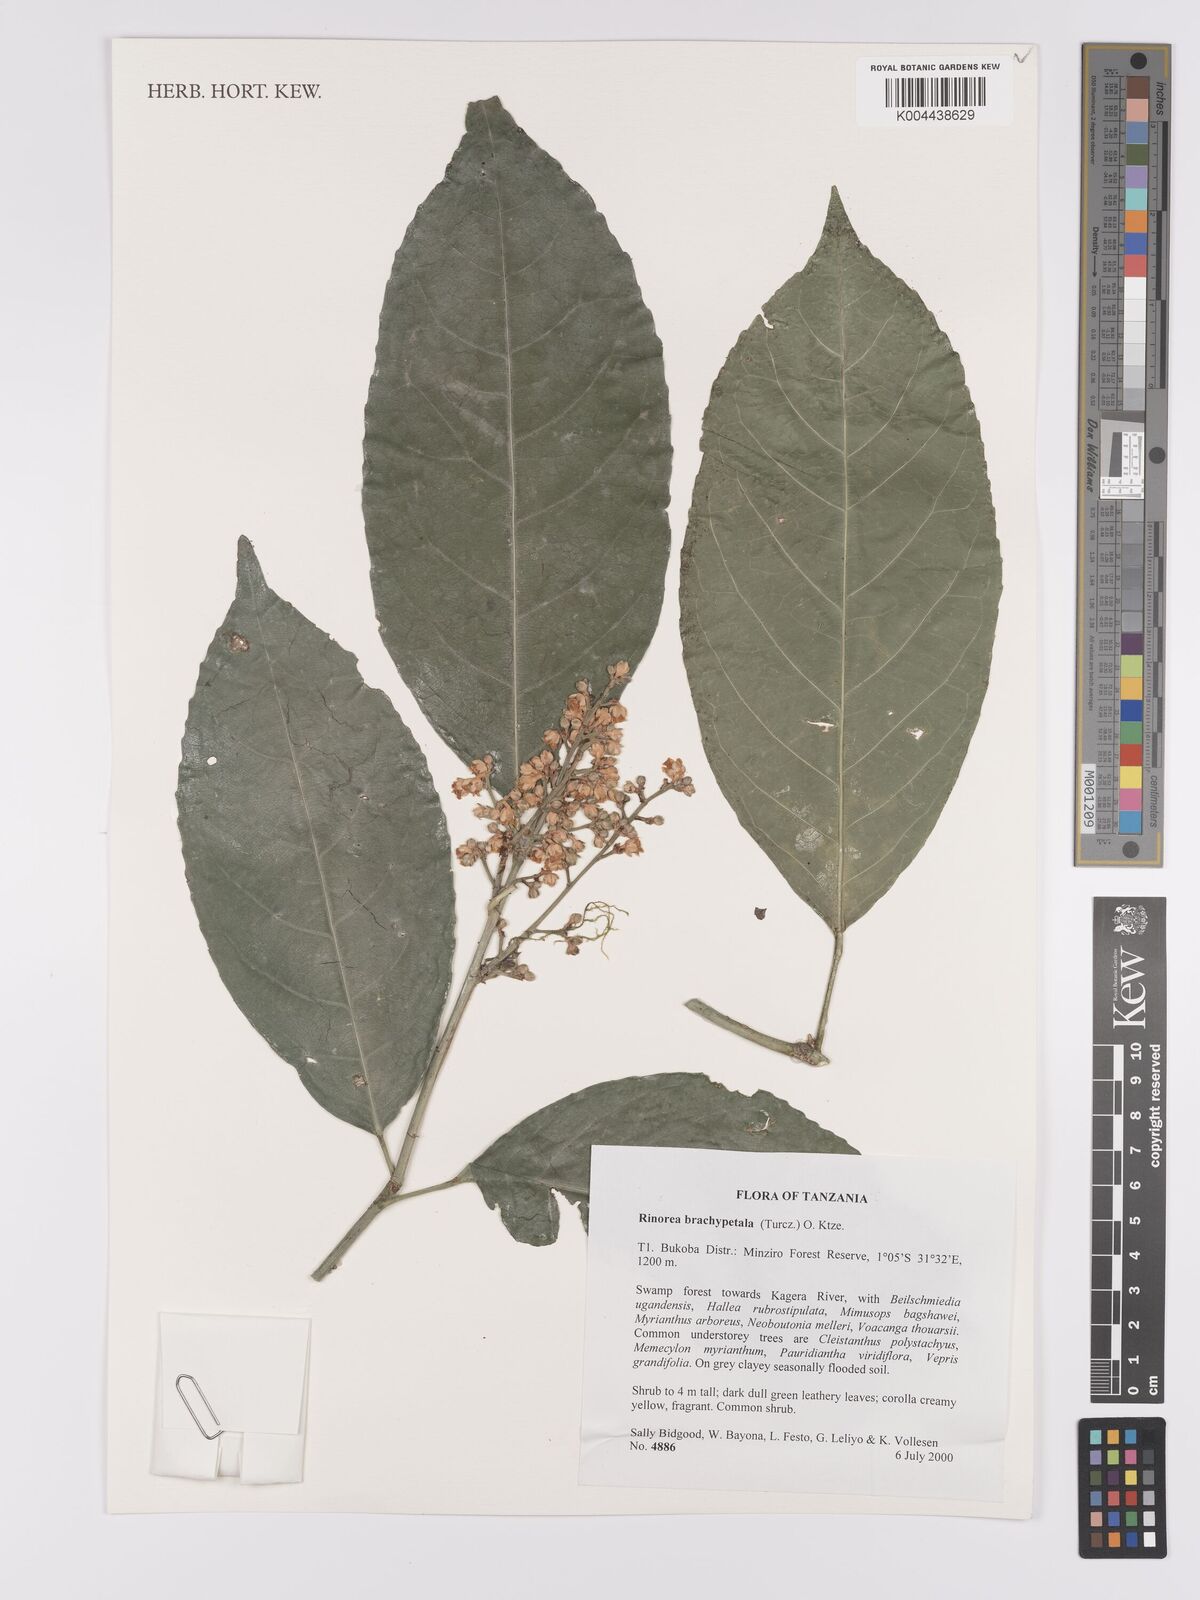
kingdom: Plantae
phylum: Tracheophyta
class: Magnoliopsida
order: Malpighiales
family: Violaceae
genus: Rinorea
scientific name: Rinorea brachypetala
